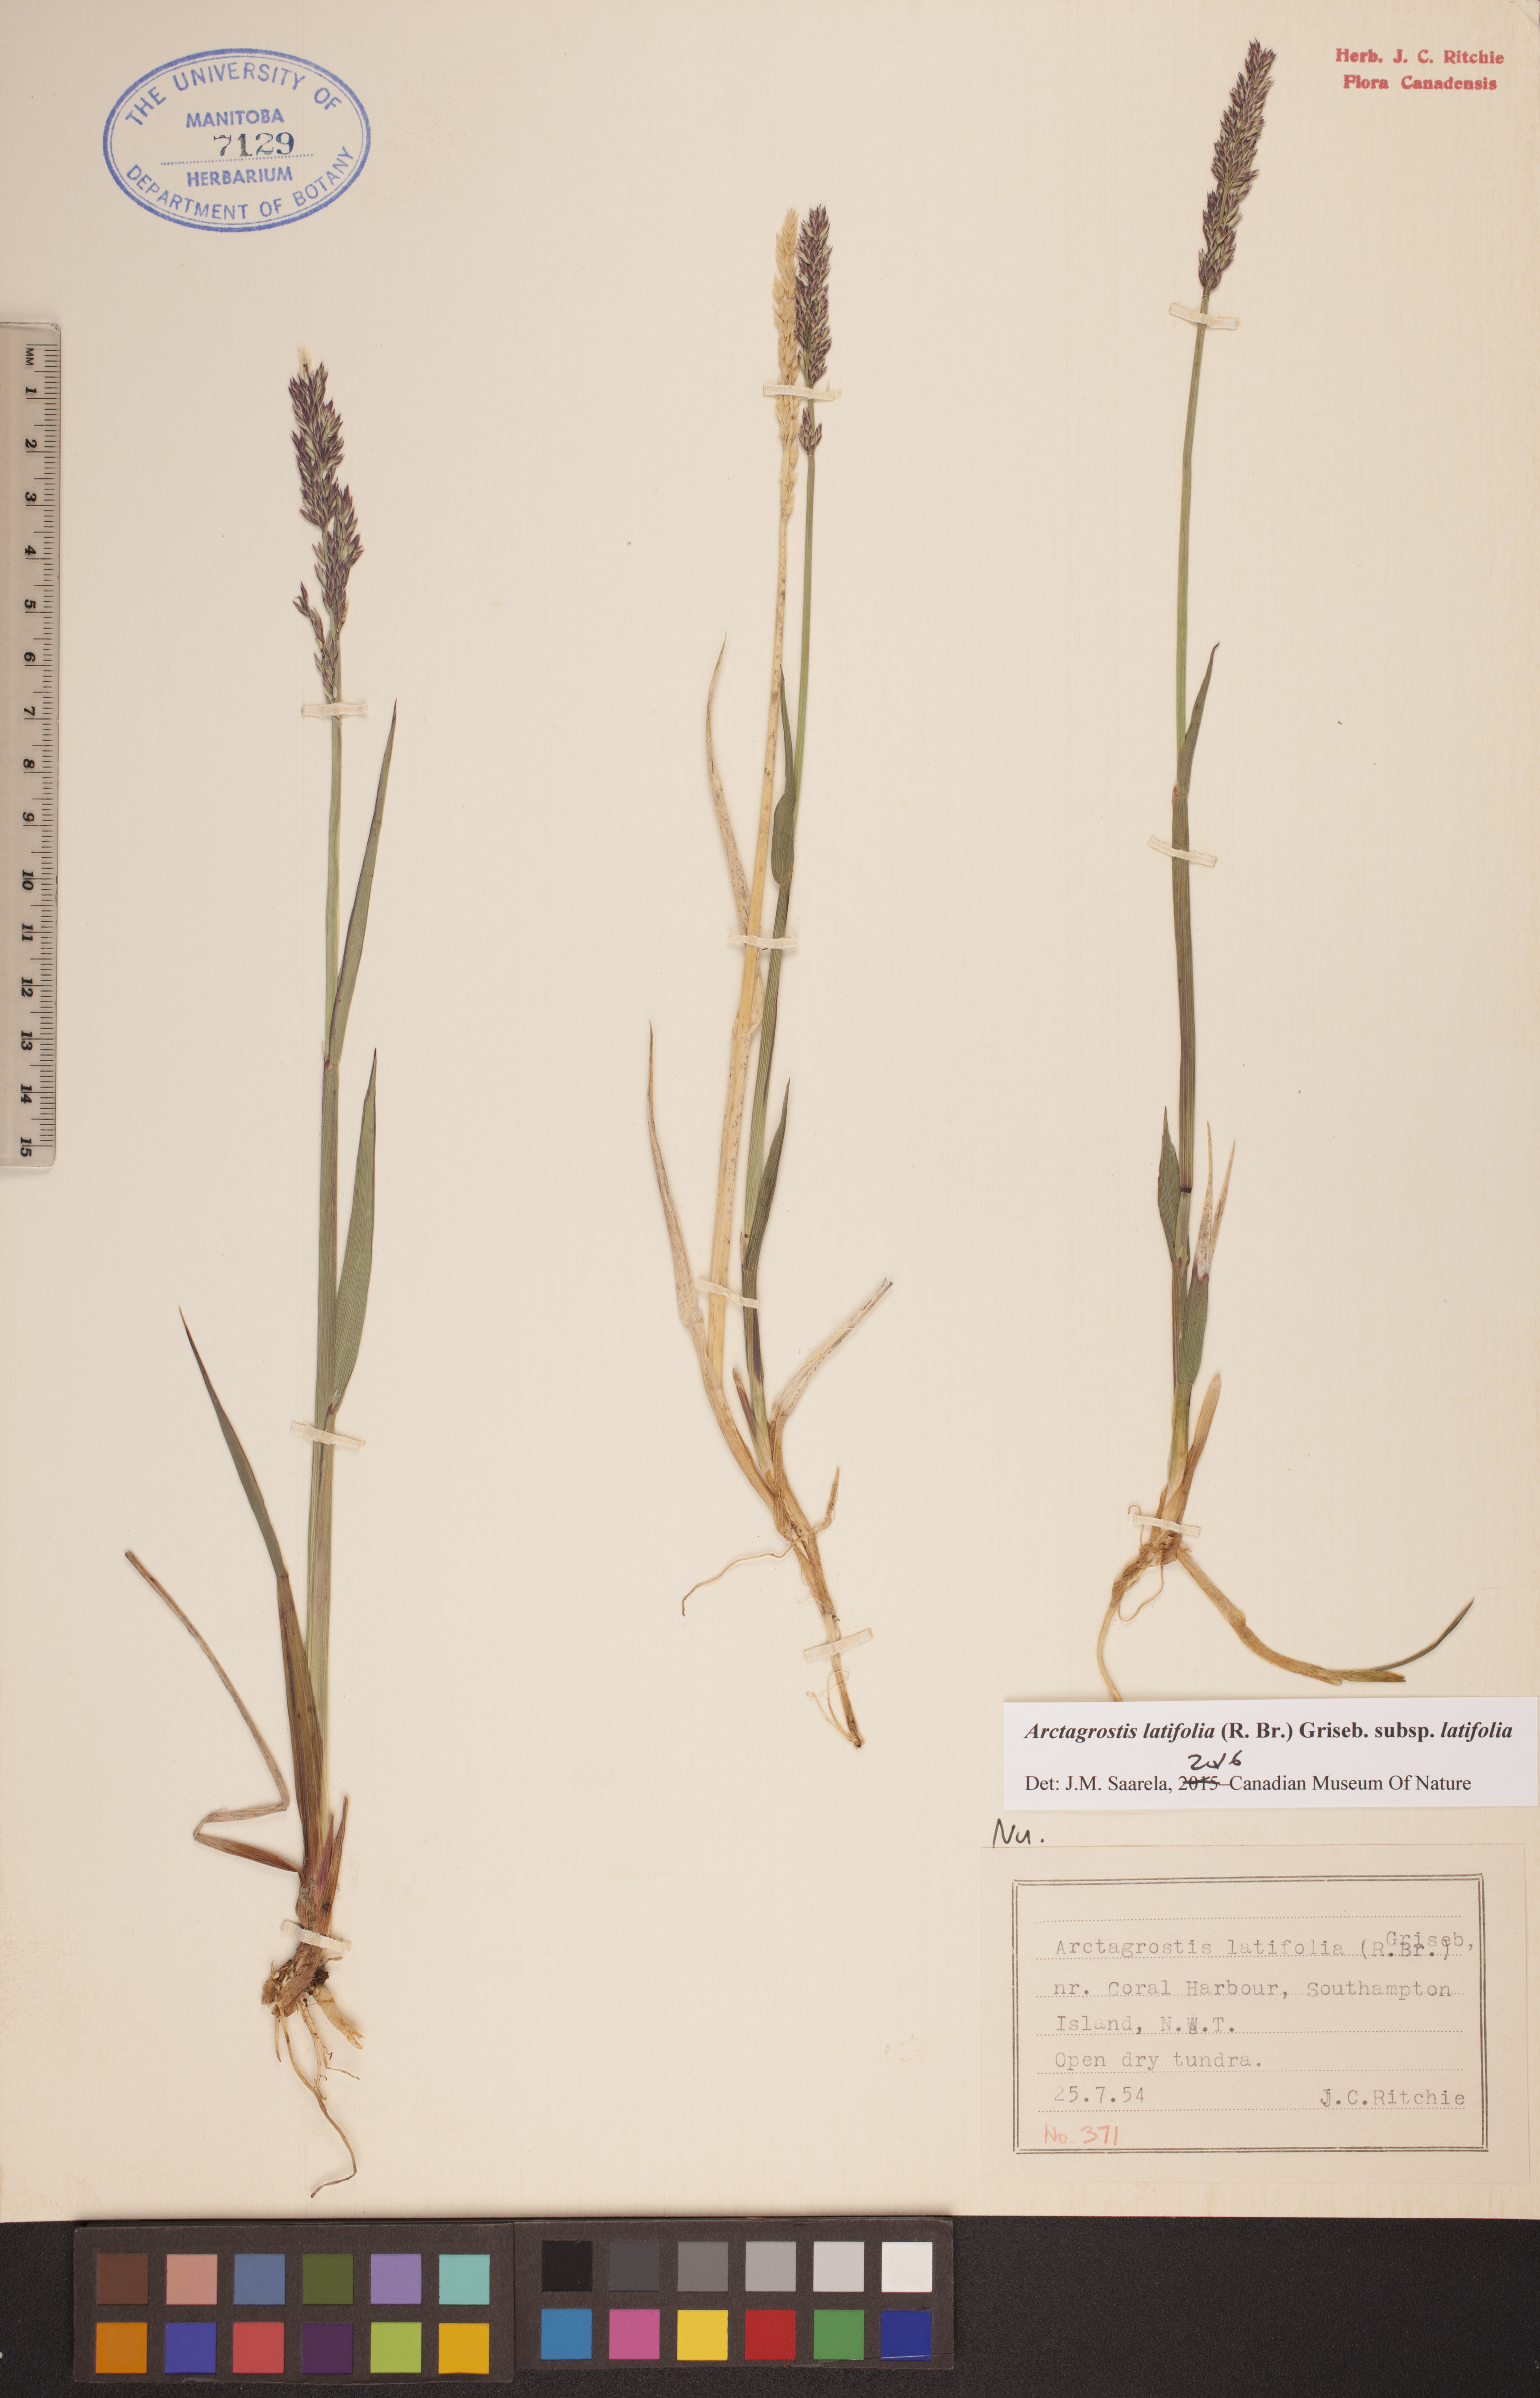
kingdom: Plantae
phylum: Tracheophyta
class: Liliopsida
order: Poales
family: Poaceae
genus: Arctagrostis
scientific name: Arctagrostis latifolia
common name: Arctic grass
